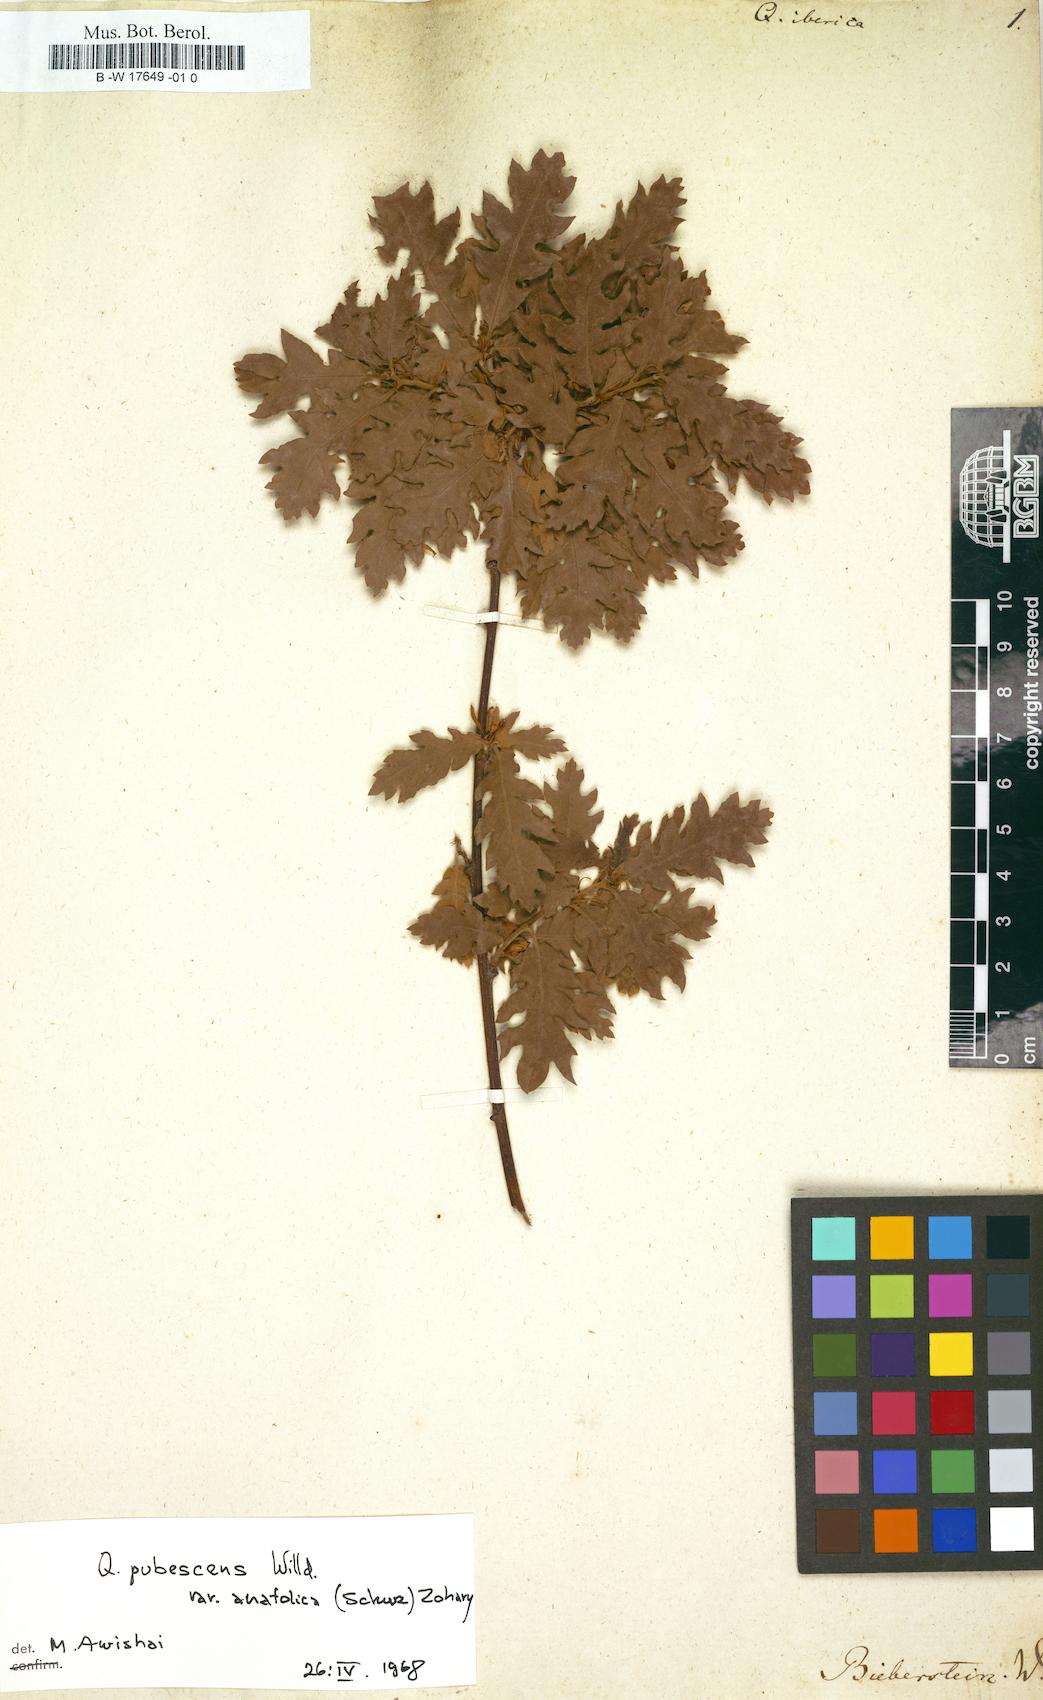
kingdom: Plantae
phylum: Tracheophyta
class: Magnoliopsida
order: Fagales
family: Fagaceae
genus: Quercus
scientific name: Quercus petraea
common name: Sessile oak
